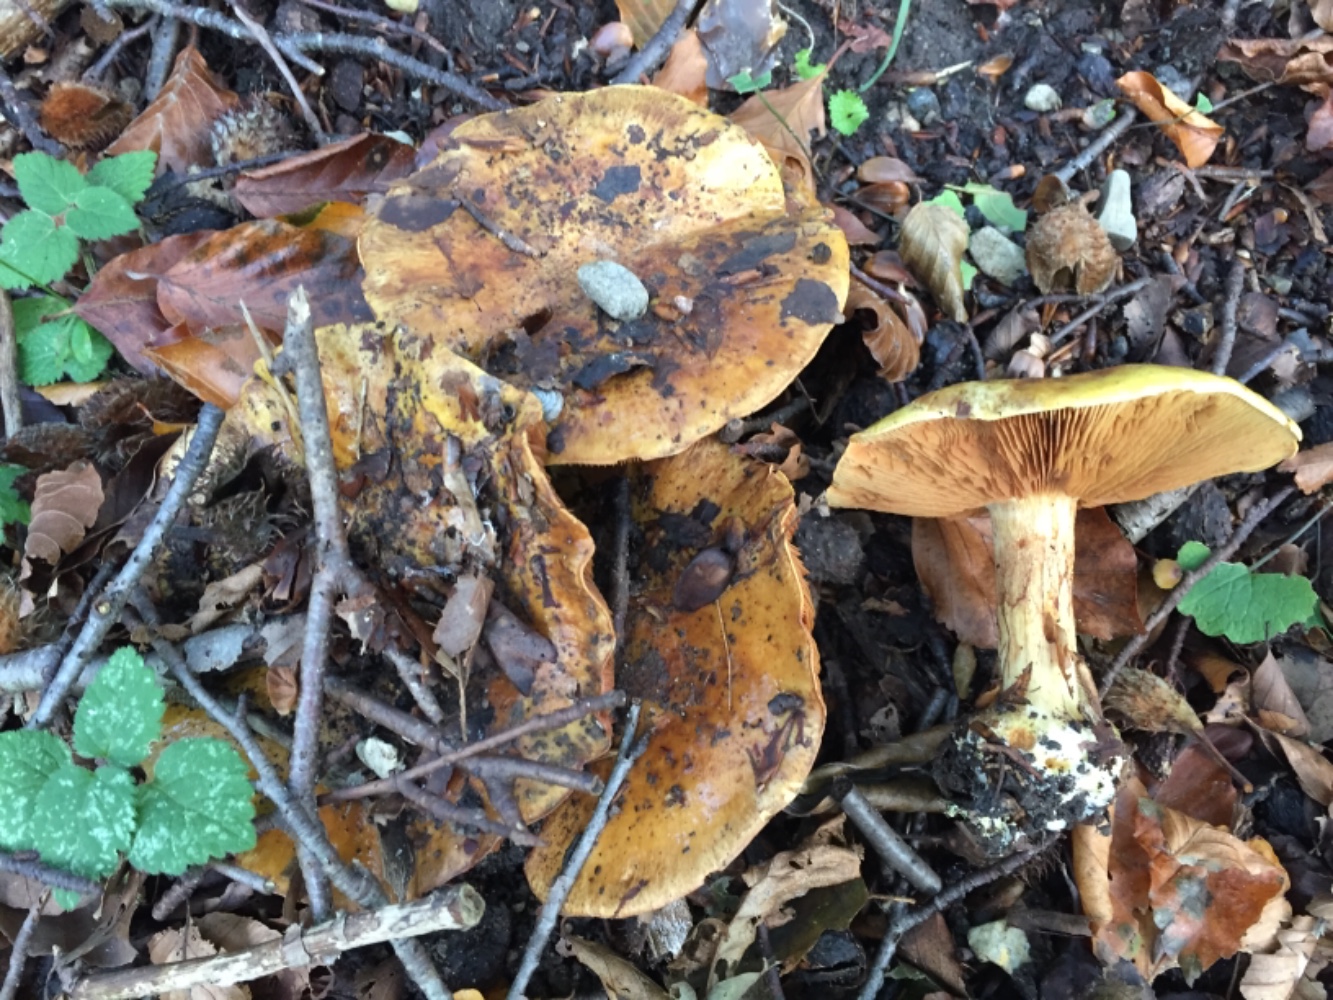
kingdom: Fungi
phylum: Basidiomycota
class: Agaricomycetes
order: Agaricales
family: Cortinariaceae
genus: Calonarius
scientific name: Calonarius alcalinophilus
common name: gyldenbrun slørhat
